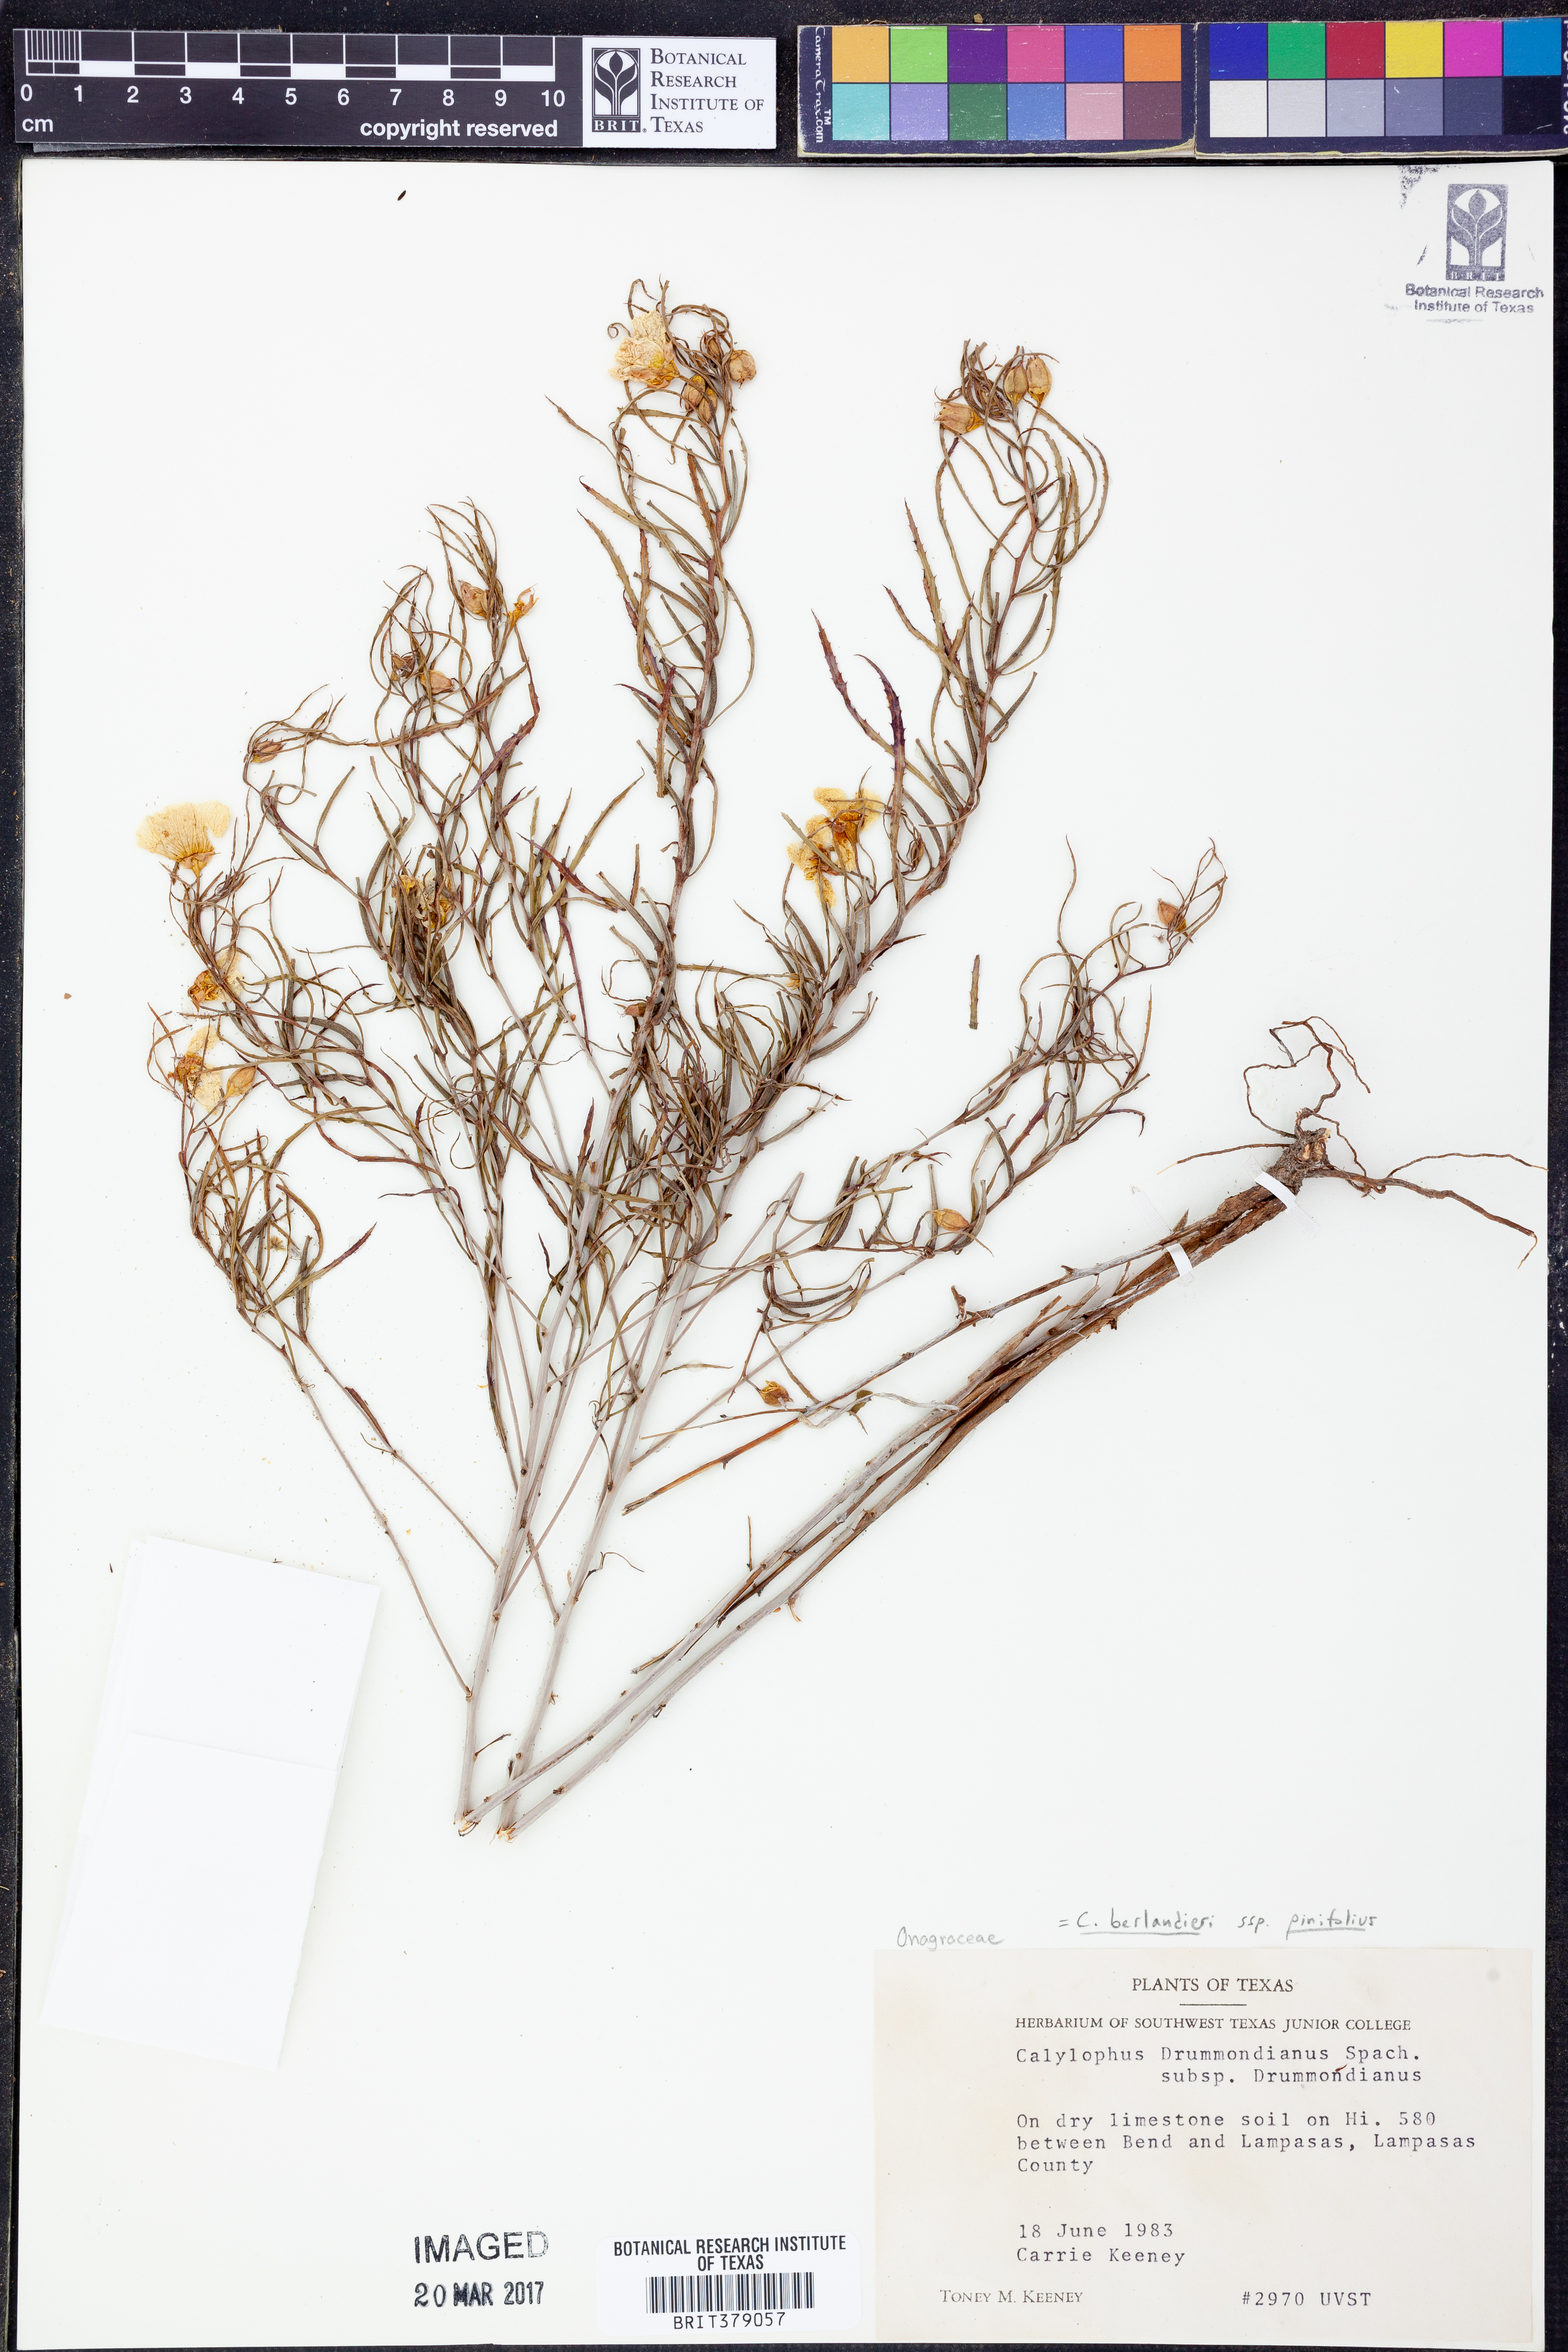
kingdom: Plantae
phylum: Tracheophyta
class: Magnoliopsida
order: Myrtales
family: Onagraceae
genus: Oenothera
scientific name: Oenothera capillifolia
